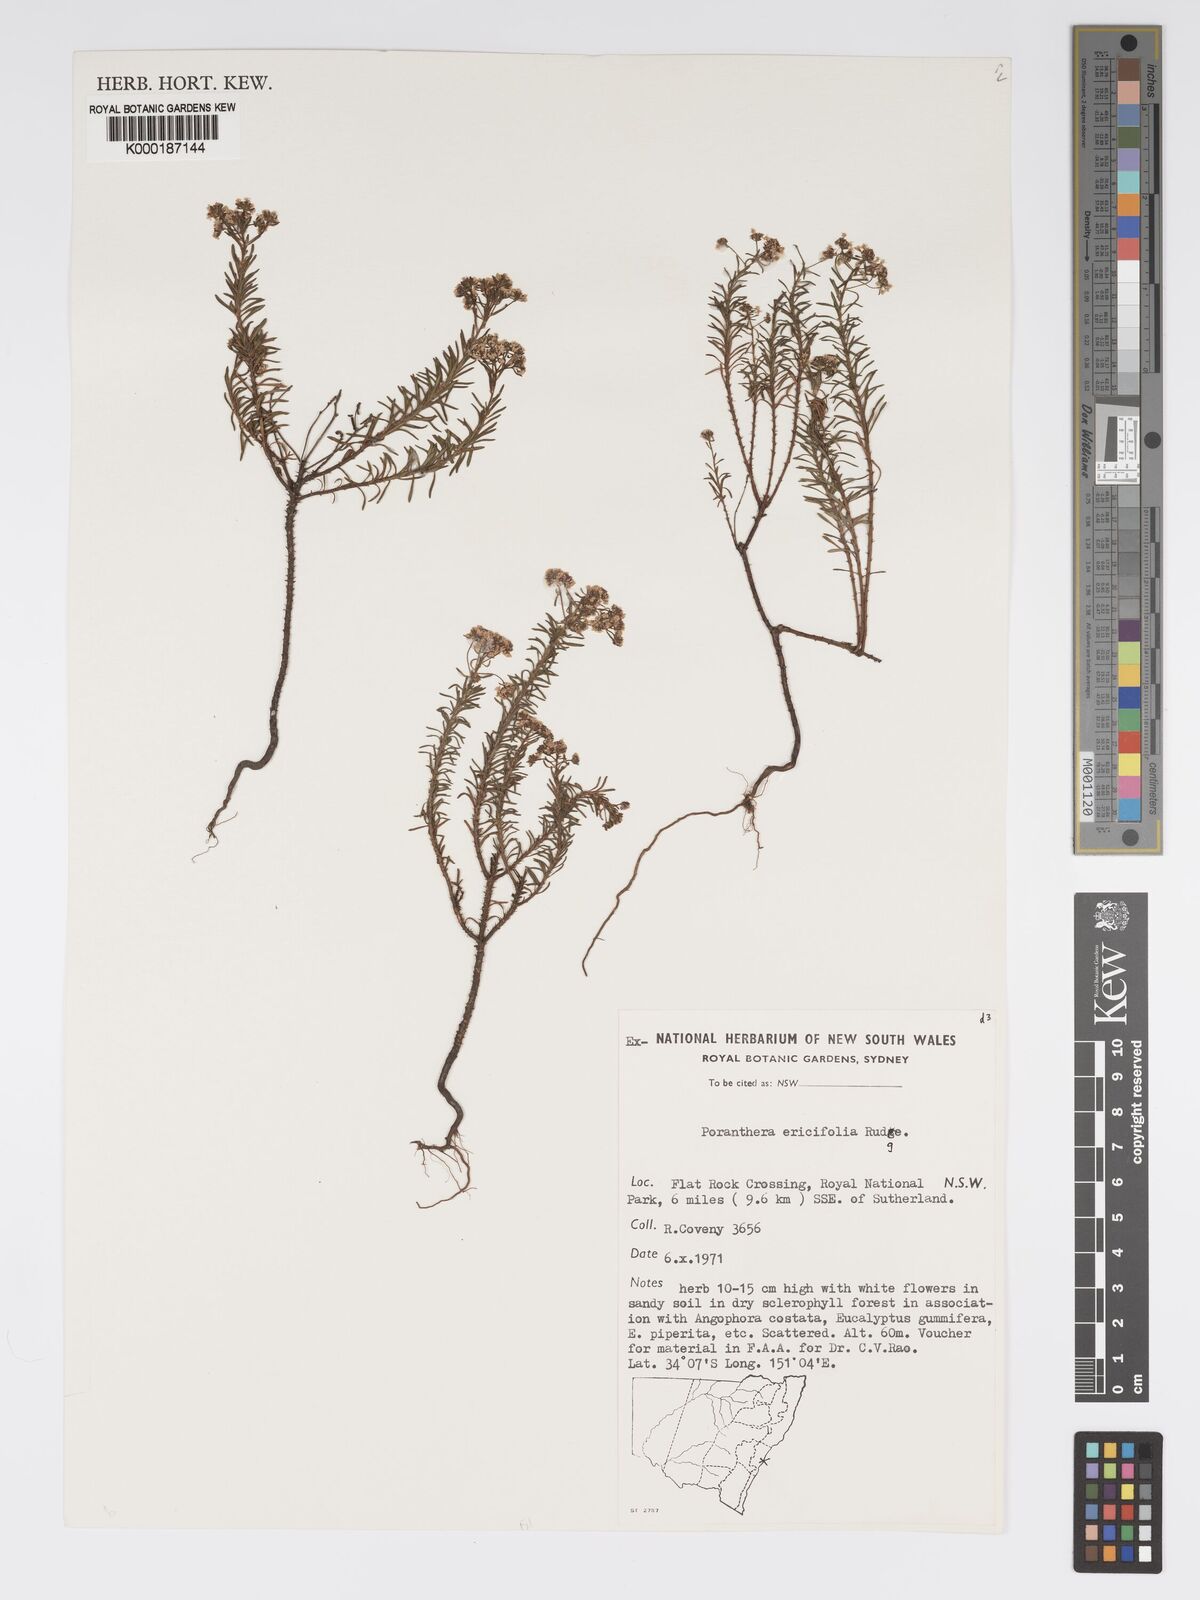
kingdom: Plantae
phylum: Tracheophyta
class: Magnoliopsida
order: Malpighiales
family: Phyllanthaceae
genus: Poranthera
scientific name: Poranthera ericifolia
